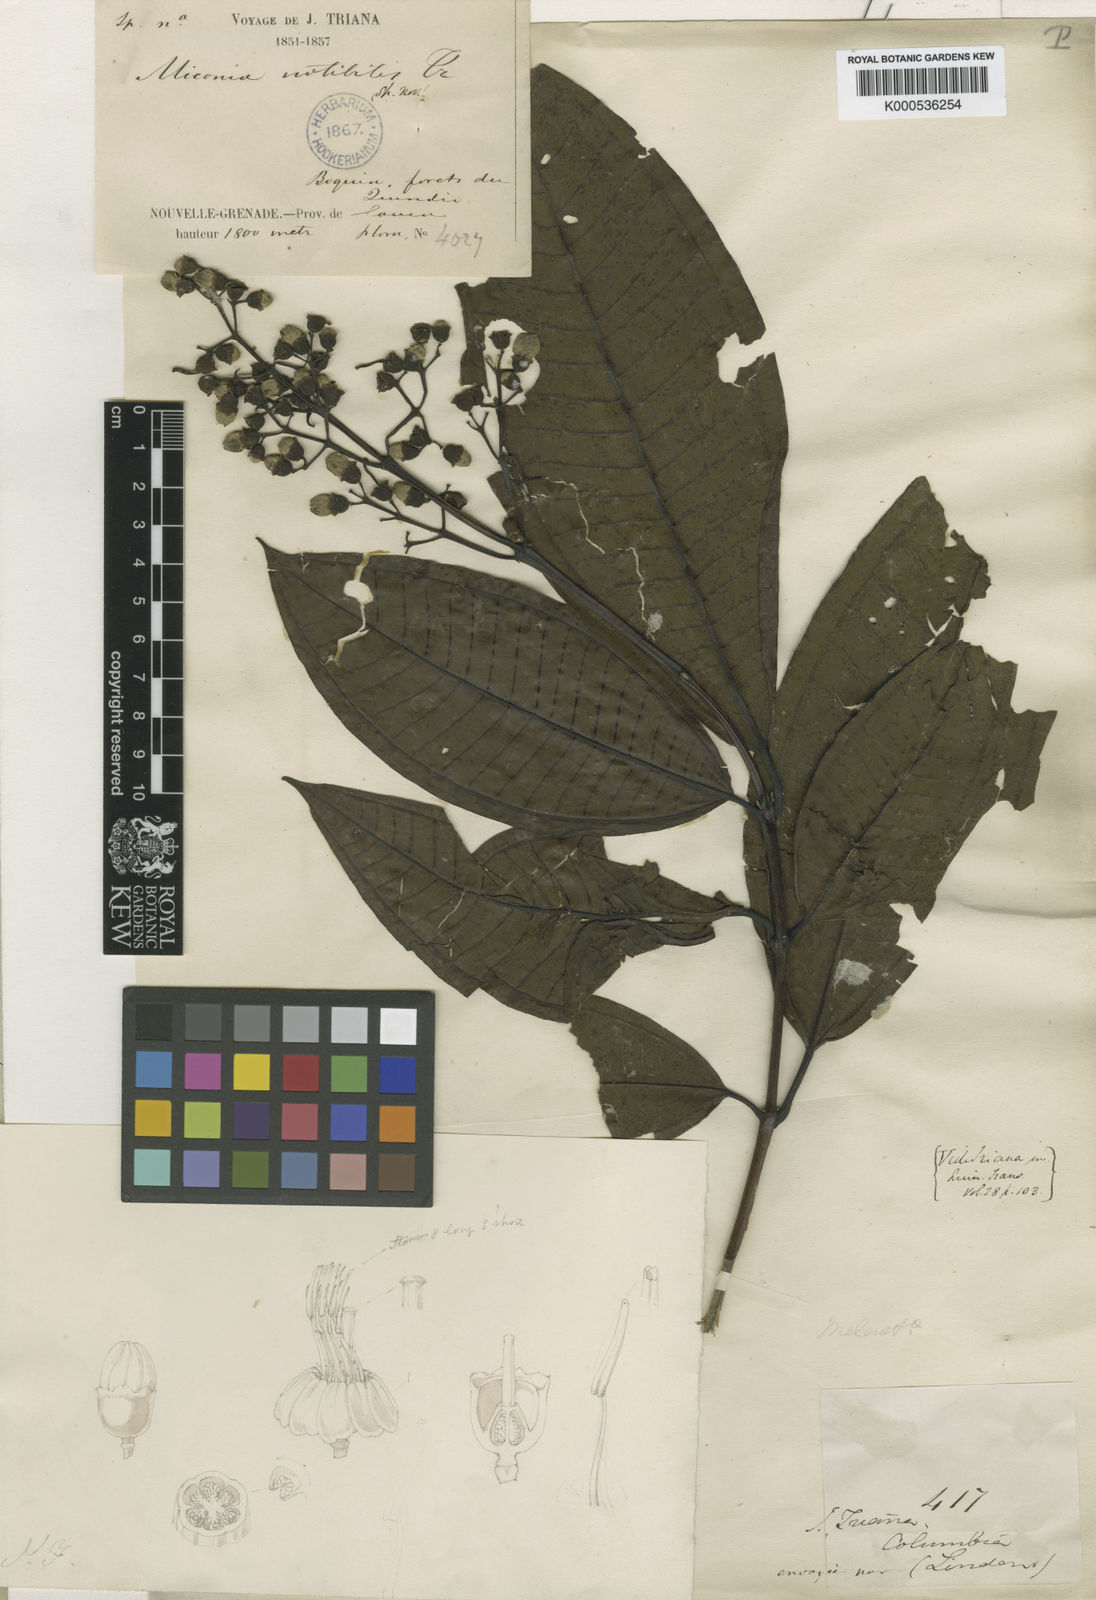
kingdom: Plantae
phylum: Tracheophyta
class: Magnoliopsida
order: Myrtales
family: Melastomataceae
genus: Miconia
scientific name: Miconia notabilis
